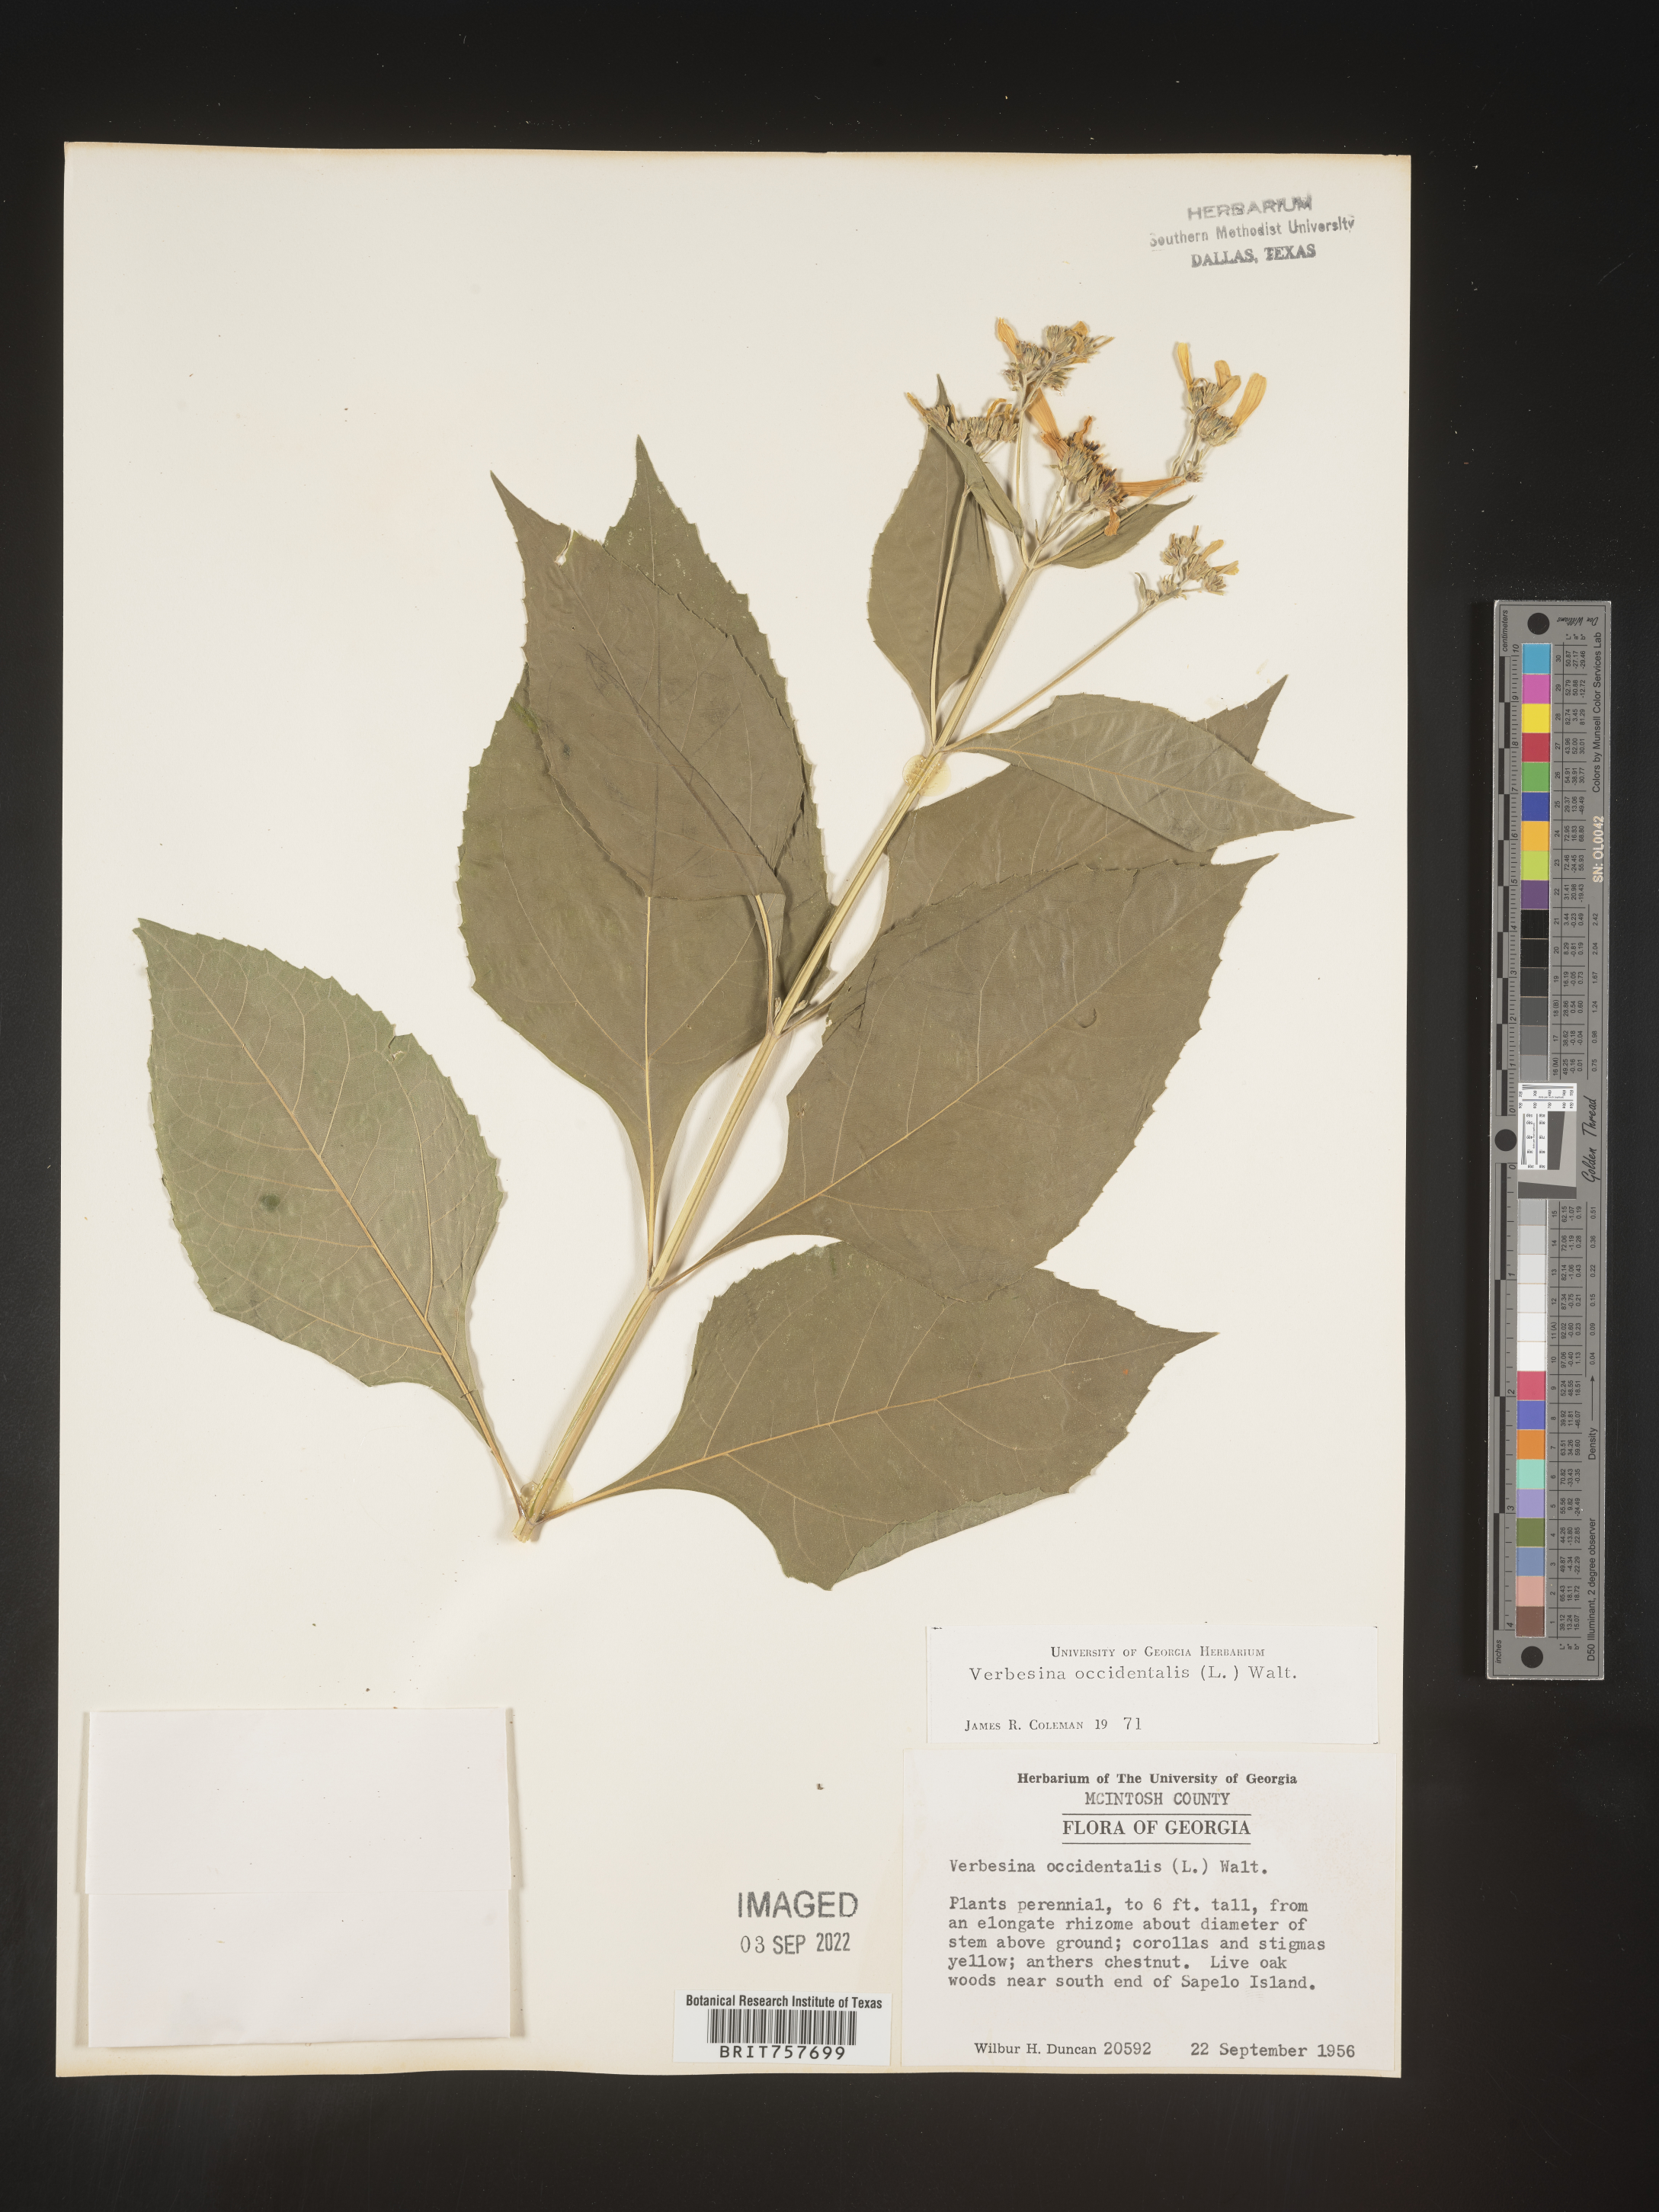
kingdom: Plantae
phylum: Tracheophyta
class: Magnoliopsida
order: Asterales
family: Asteraceae
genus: Verbesina
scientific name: Verbesina occidentalis
